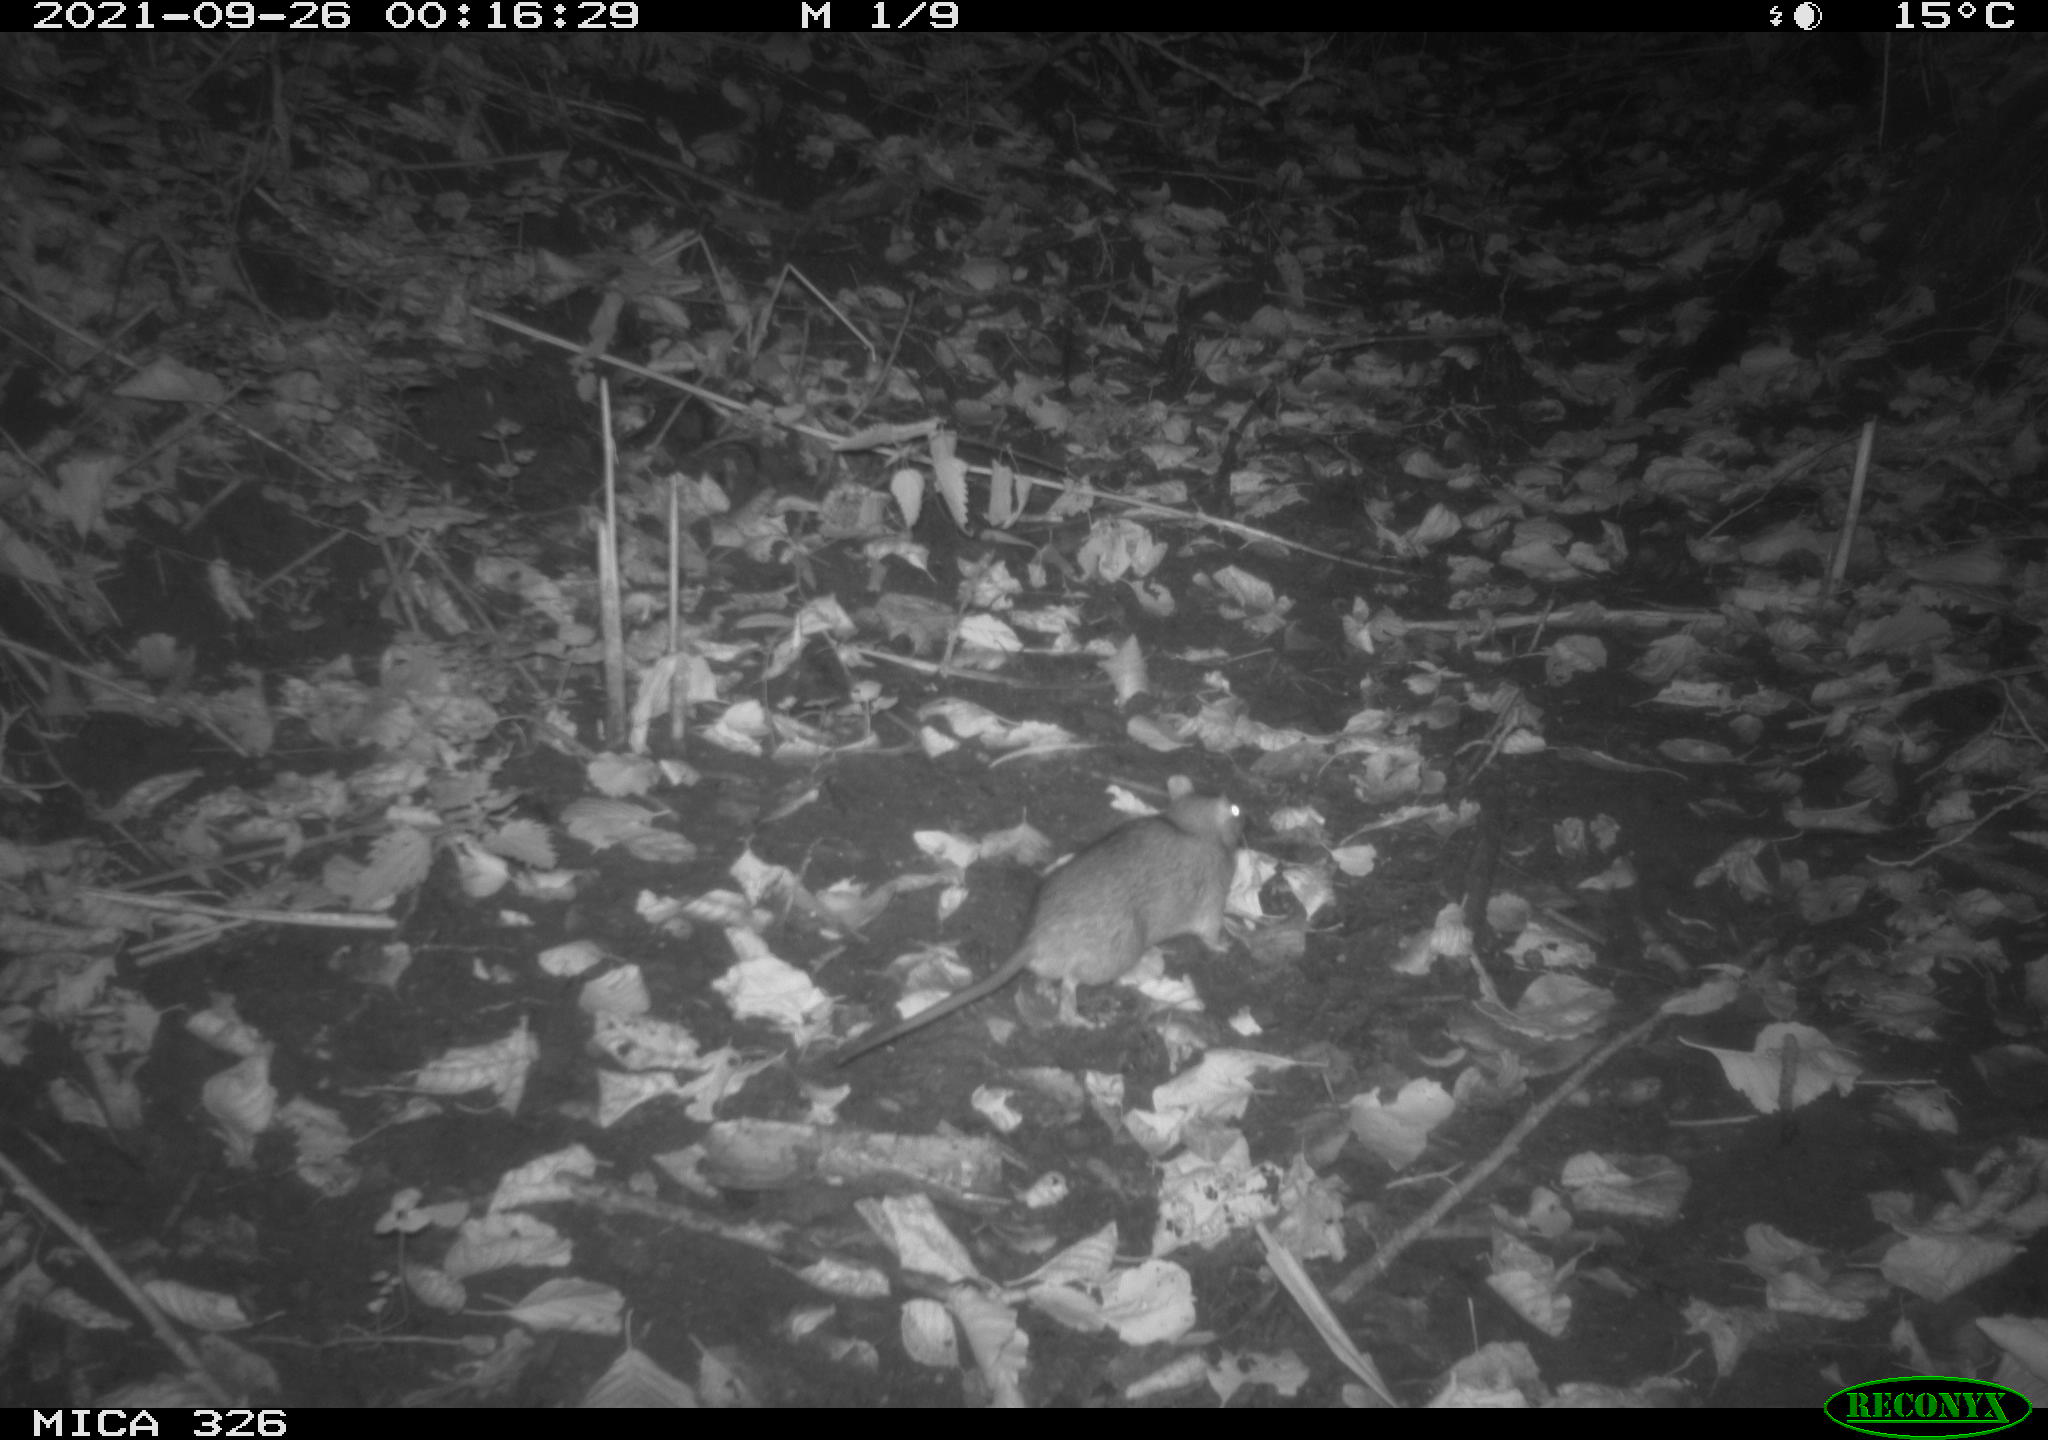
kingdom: Animalia
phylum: Chordata
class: Mammalia
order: Rodentia
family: Muridae
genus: Rattus
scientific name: Rattus norvegicus
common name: Brown rat
